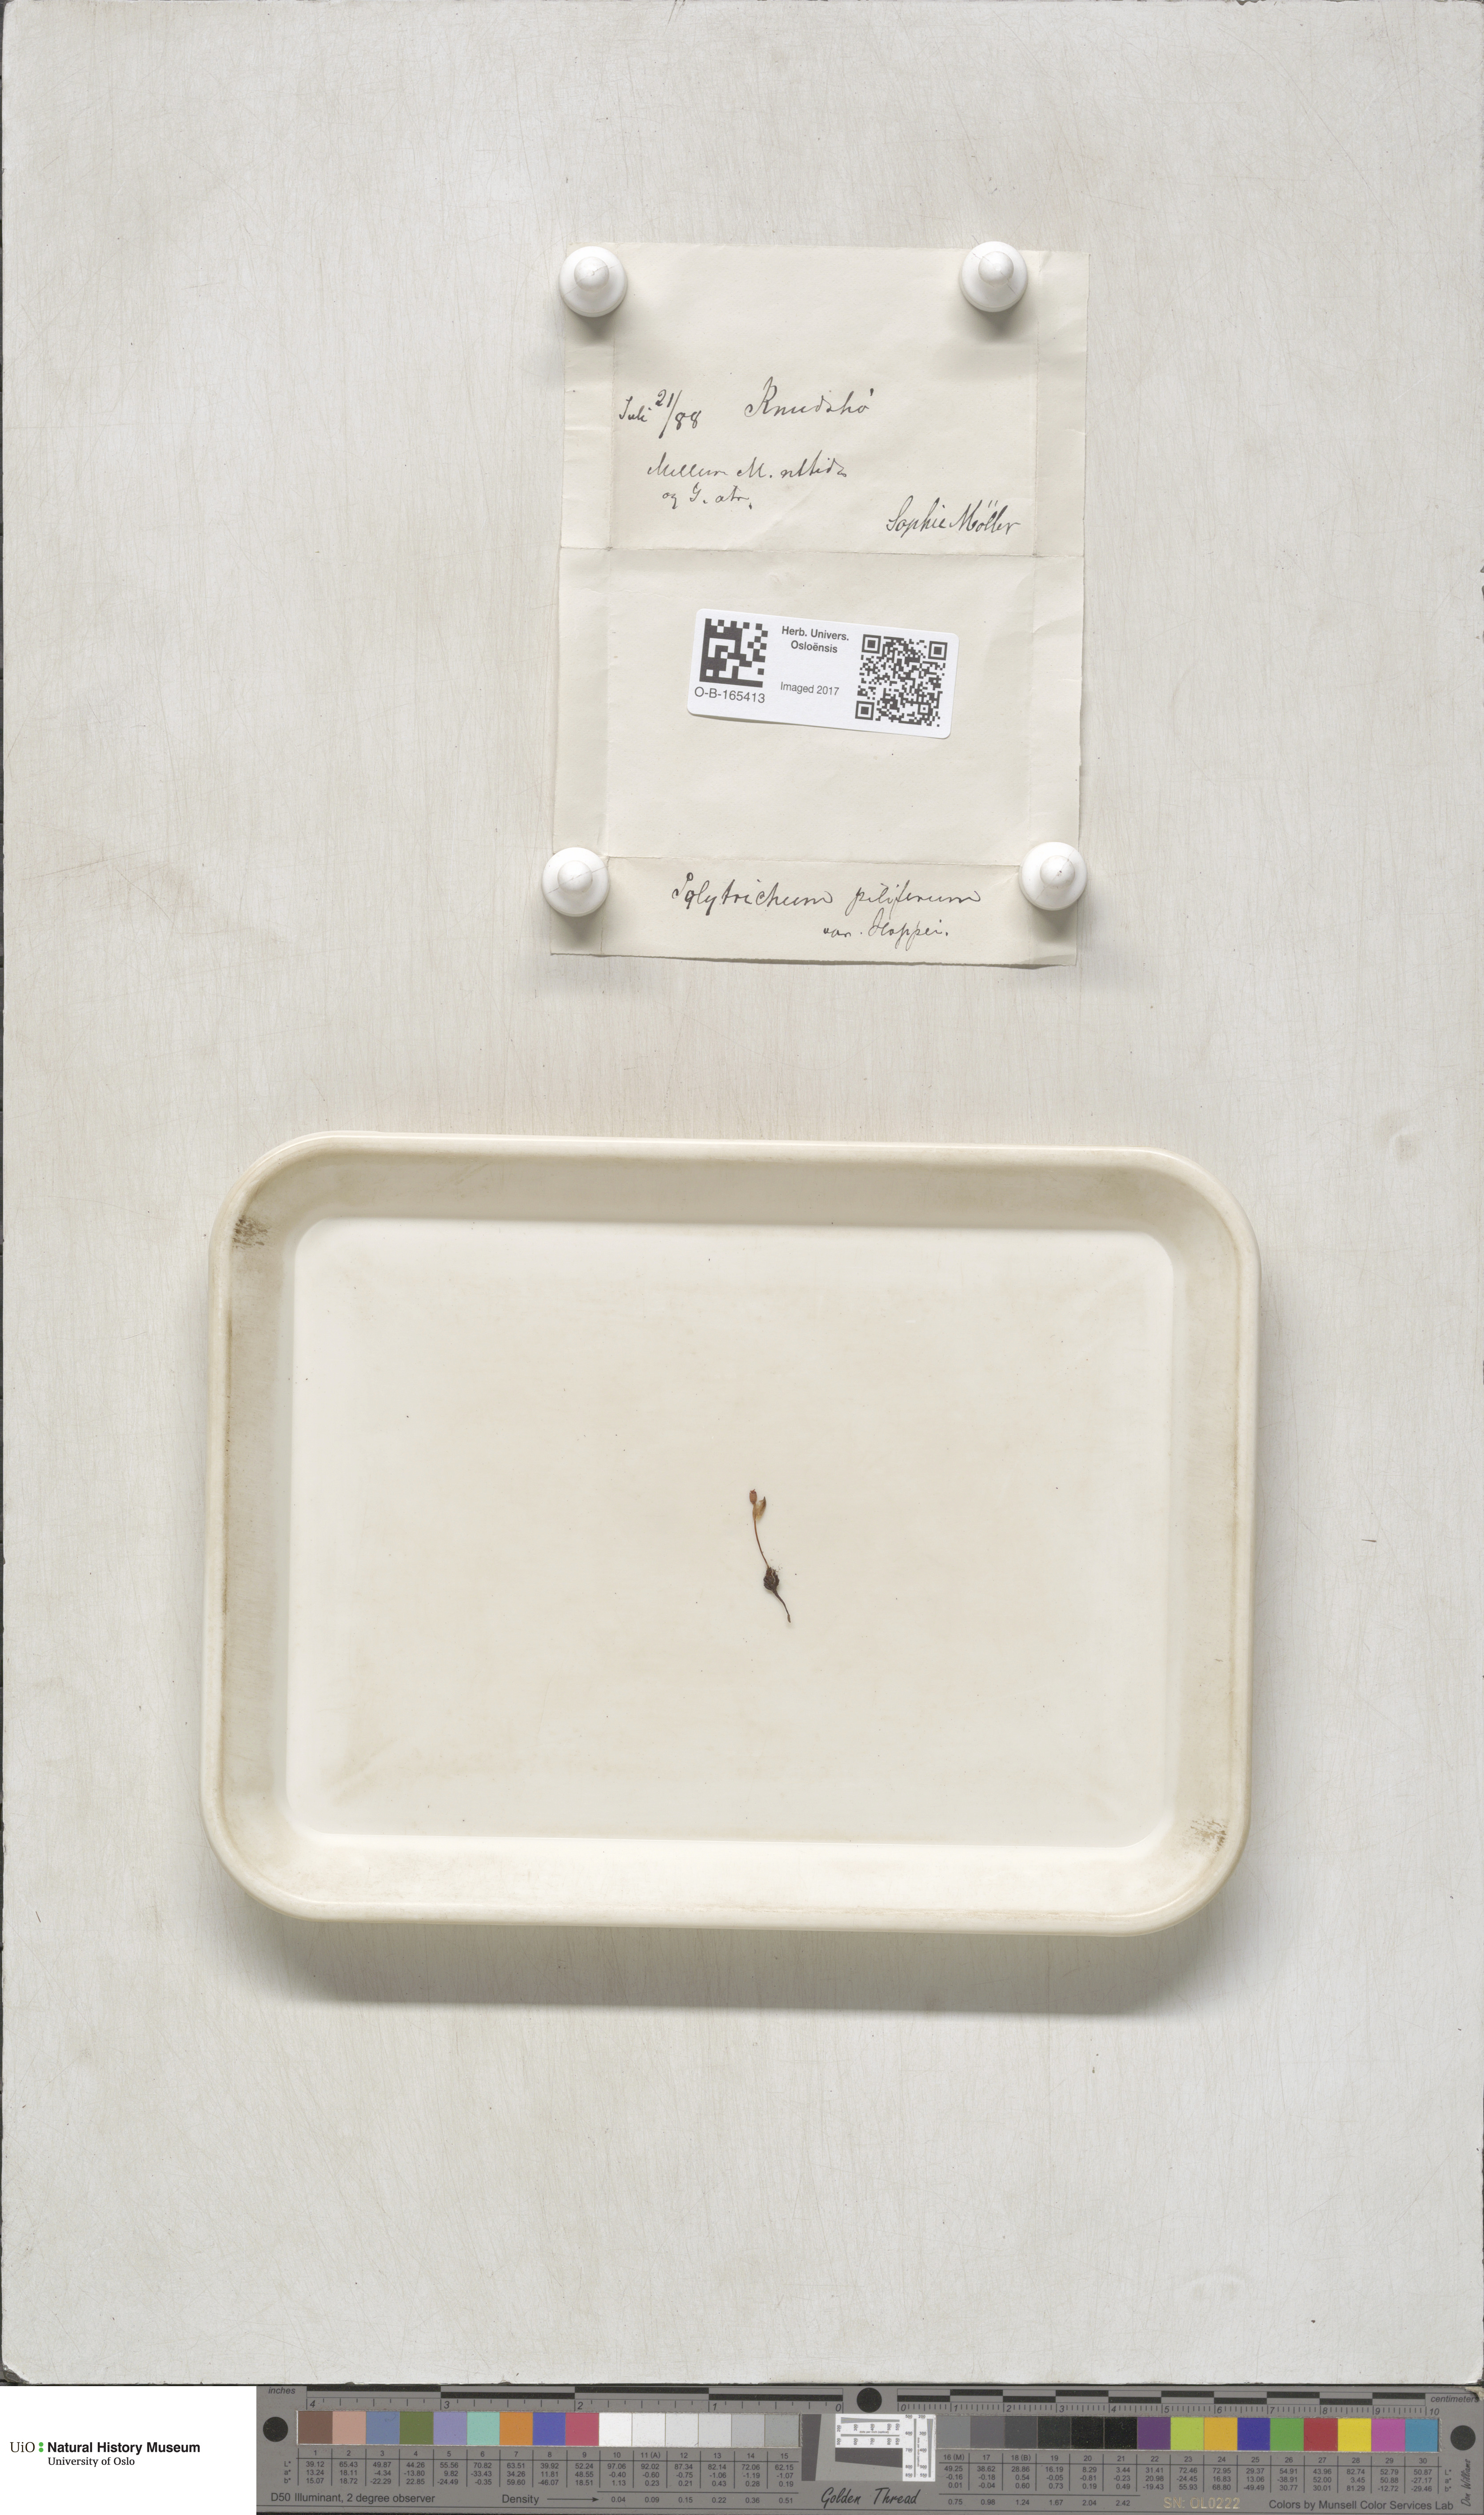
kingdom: Plantae
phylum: Bryophyta
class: Polytrichopsida
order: Polytrichales
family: Polytrichaceae
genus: Polytrichum
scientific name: Polytrichum piliferum
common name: Bristly haircap
